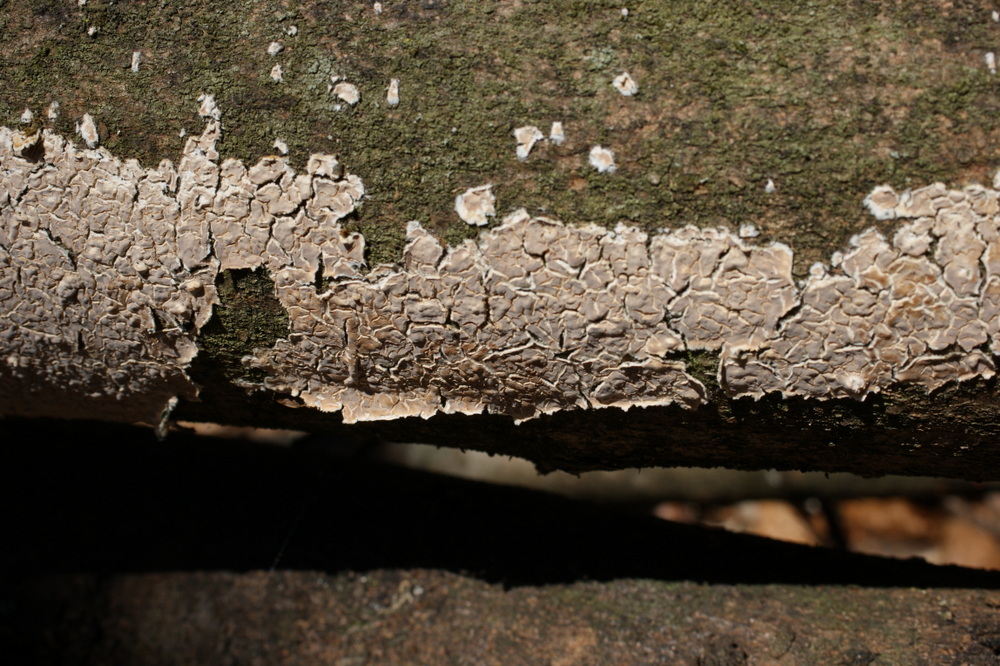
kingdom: Fungi
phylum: Basidiomycota
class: Agaricomycetes
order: Agaricales
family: Physalacriaceae
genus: Cylindrobasidium
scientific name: Cylindrobasidium evolvens
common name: sprækkehinde
